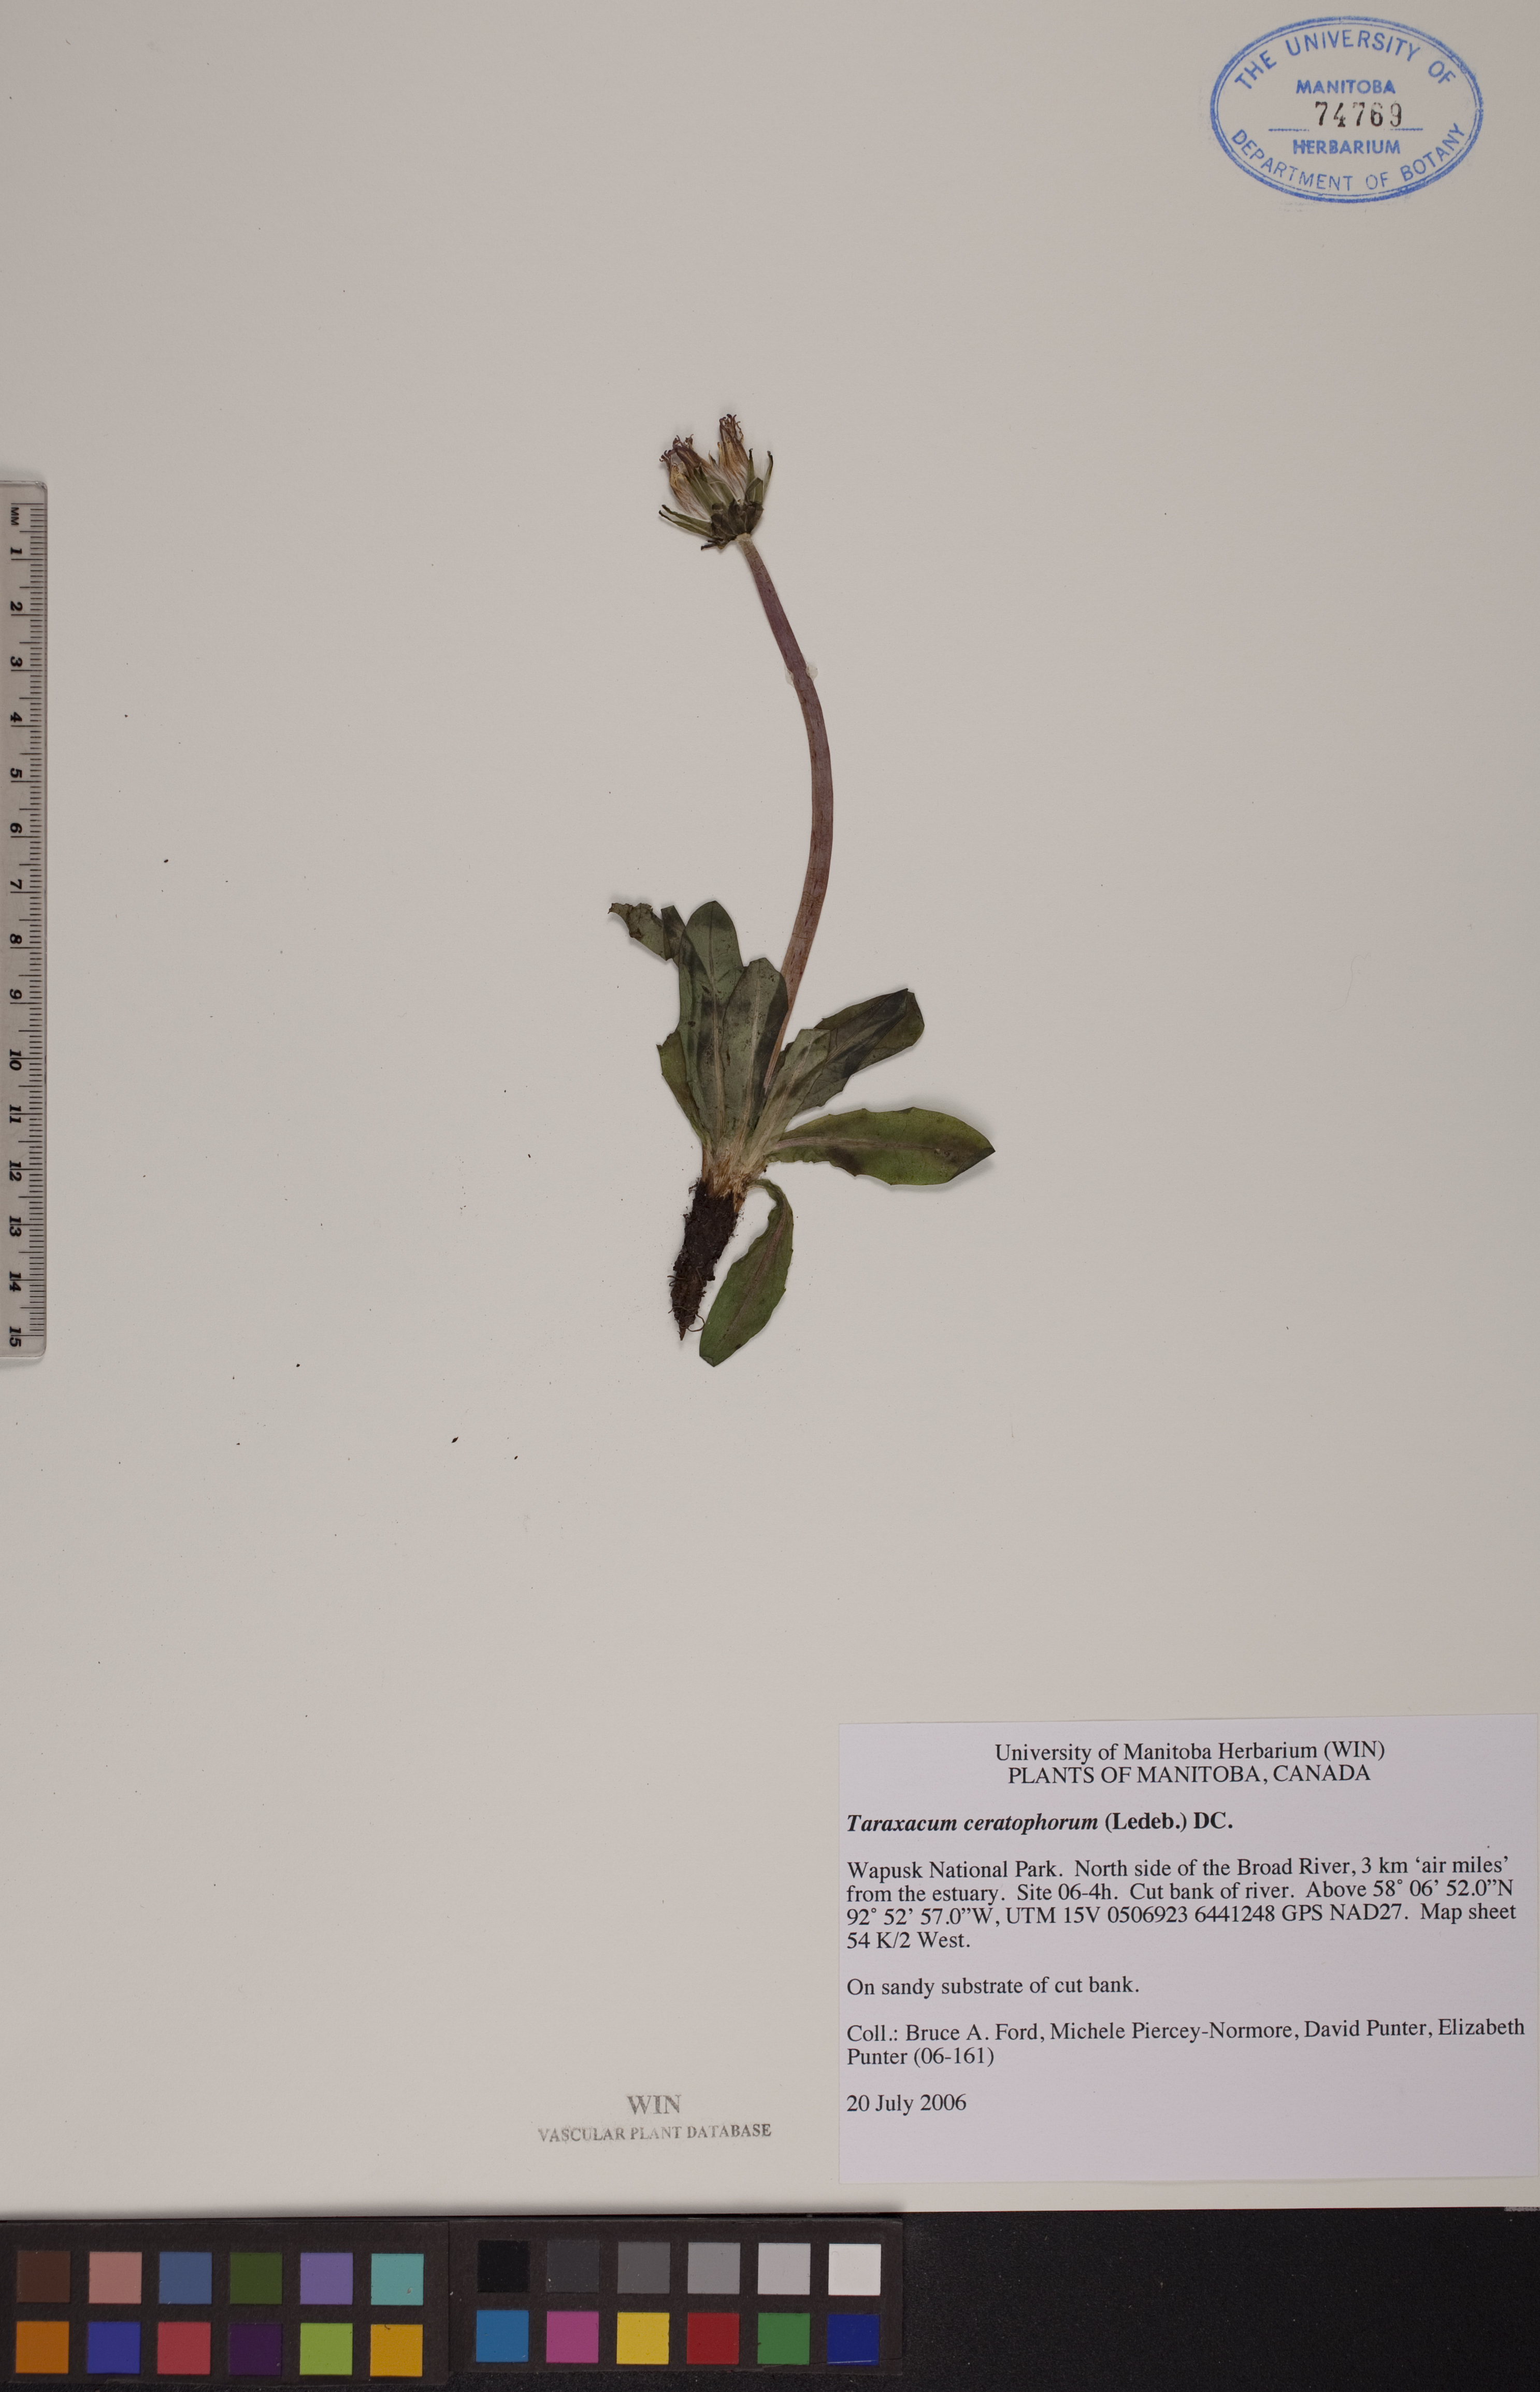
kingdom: Plantae
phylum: Tracheophyta
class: Magnoliopsida
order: Asterales
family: Asteraceae
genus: Taraxacum
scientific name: Taraxacum ceratophorum
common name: Horn-bearing dandelion
